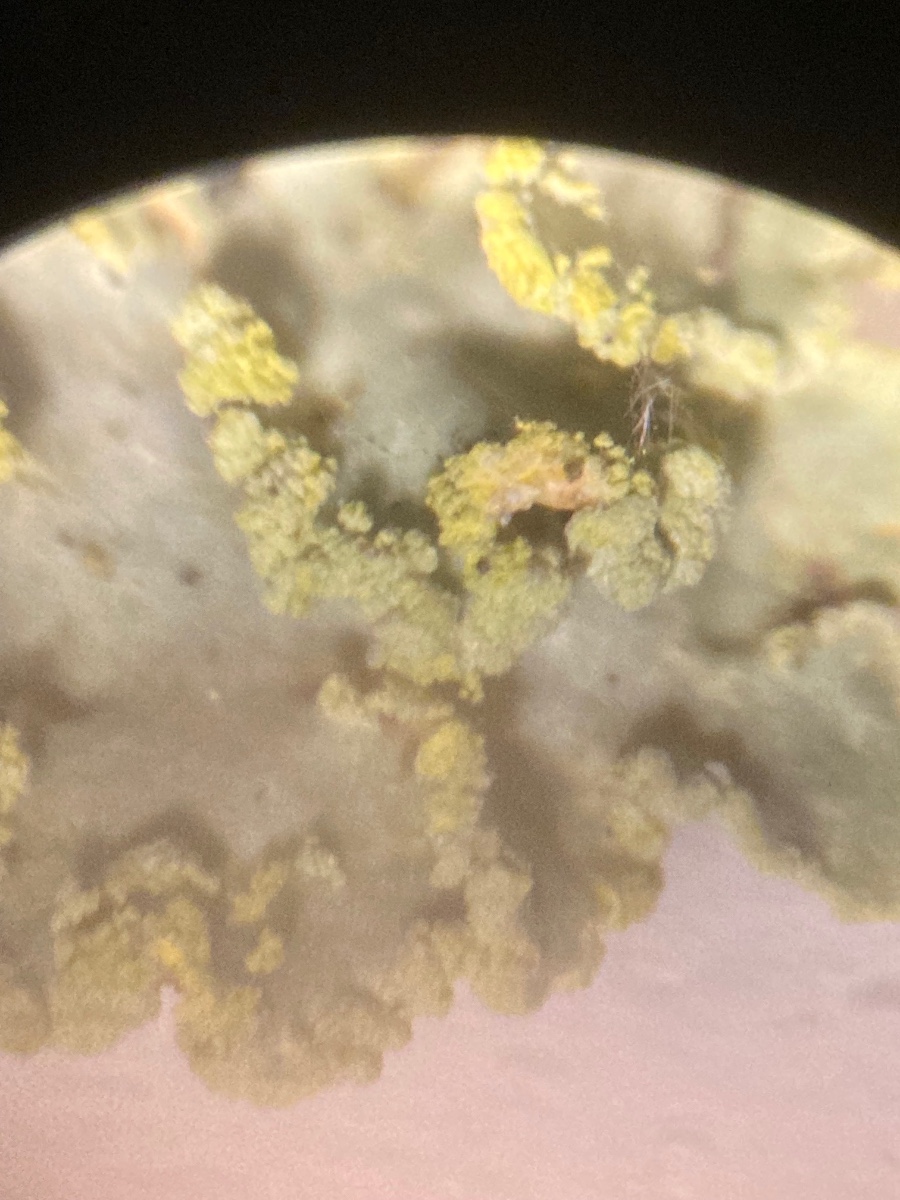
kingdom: Fungi
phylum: Ascomycota
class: Lecanoromycetes
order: Lecanorales
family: Parmeliaceae
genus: Vulpicida
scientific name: Vulpicida pinastri
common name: gul kruslav
